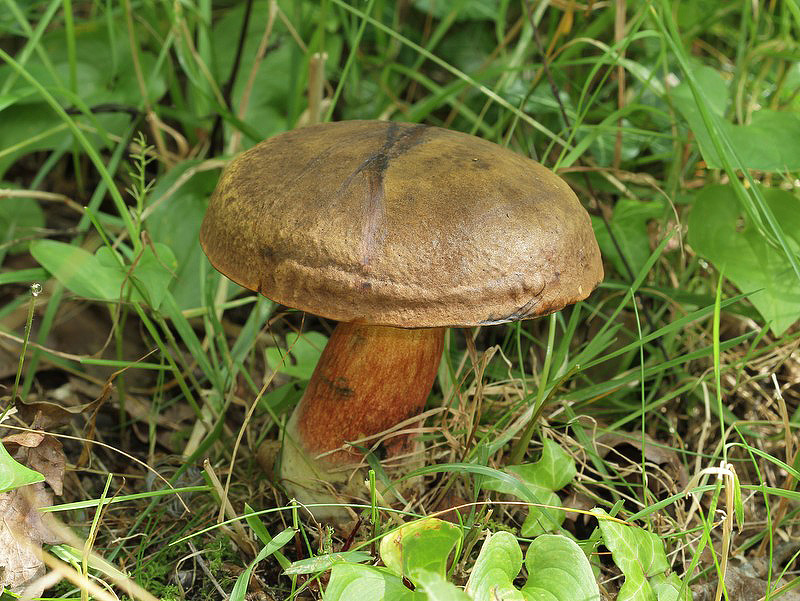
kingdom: Fungi
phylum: Basidiomycota
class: Agaricomycetes
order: Boletales
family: Boletaceae
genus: Neoboletus
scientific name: Neoboletus erythropus
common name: punktstokket indigorørhat
